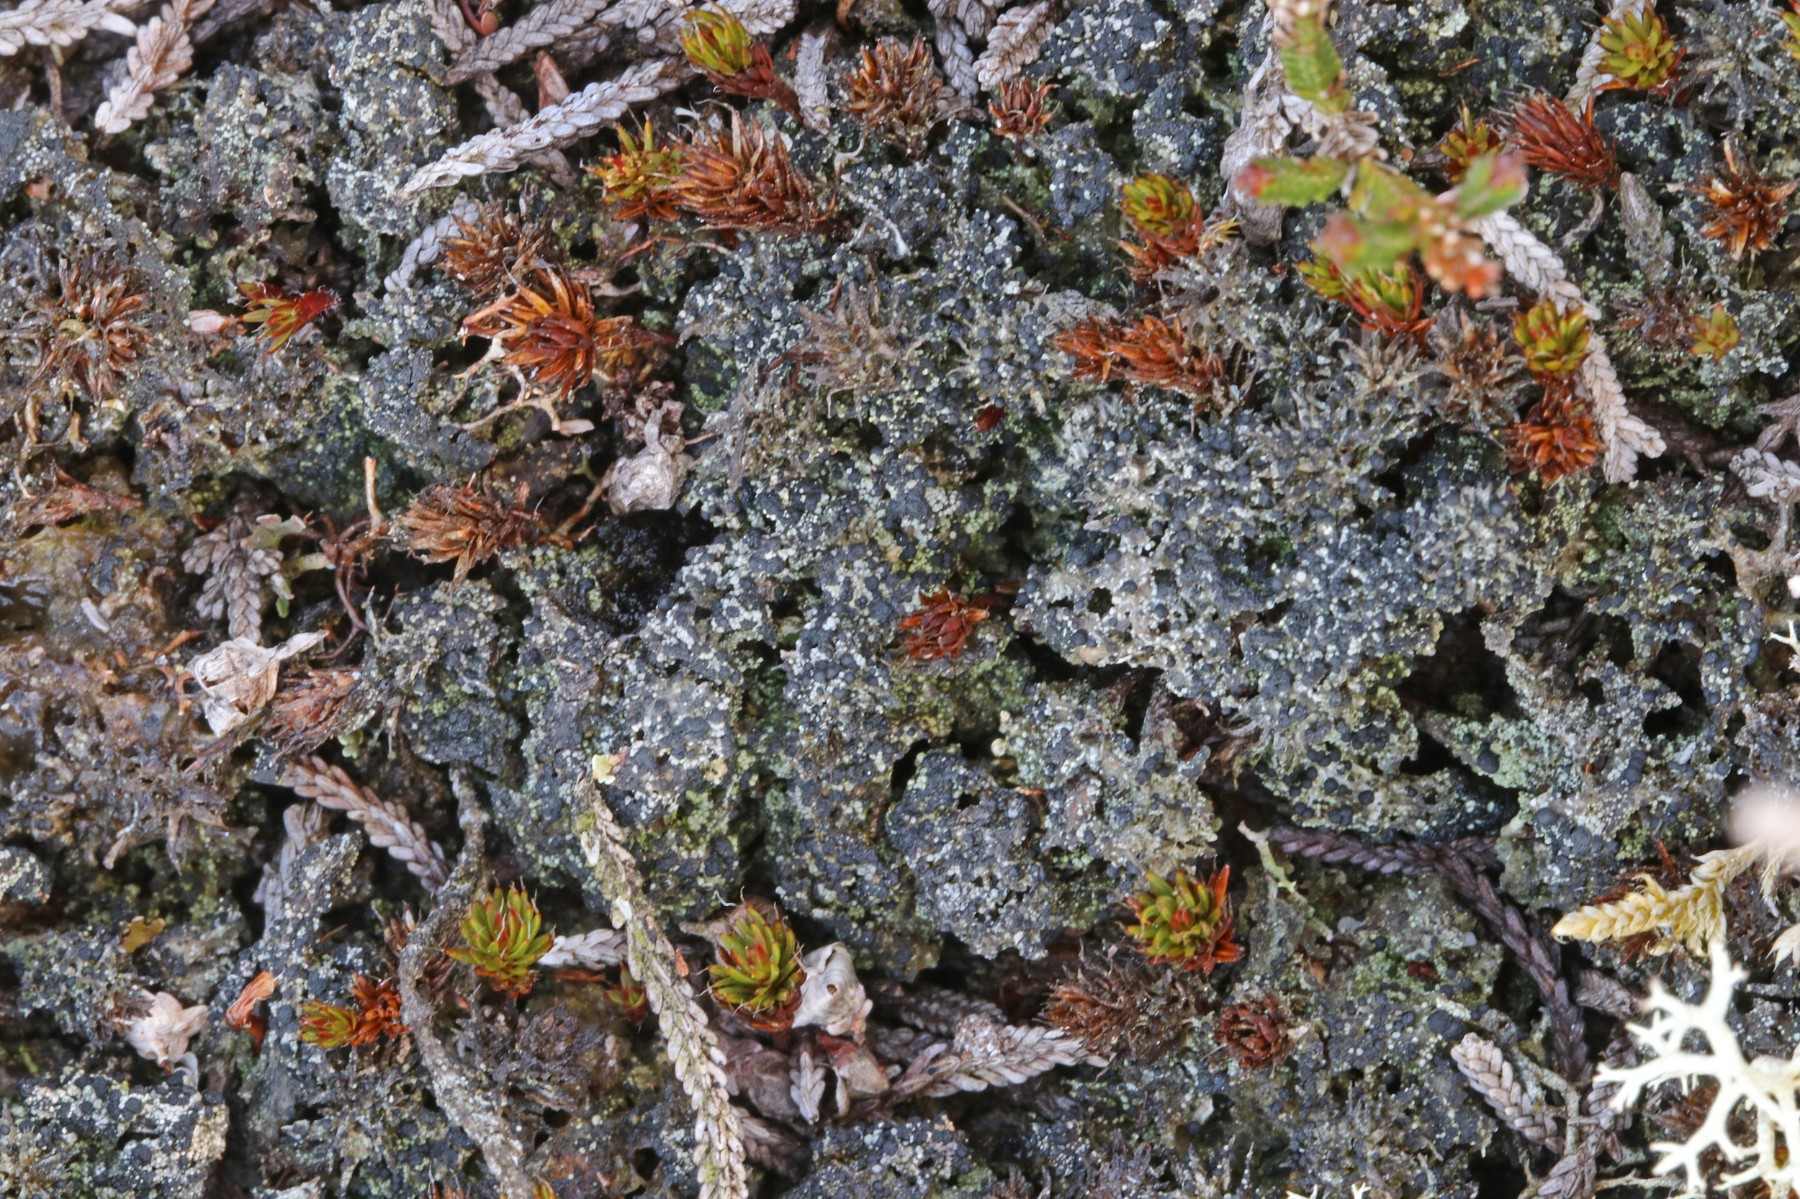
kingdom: Fungi
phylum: Ascomycota
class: Lecanoromycetes
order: Lecanorales
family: Byssolomataceae
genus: Micarea
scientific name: Micarea lignaria
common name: tørve-knaplav
